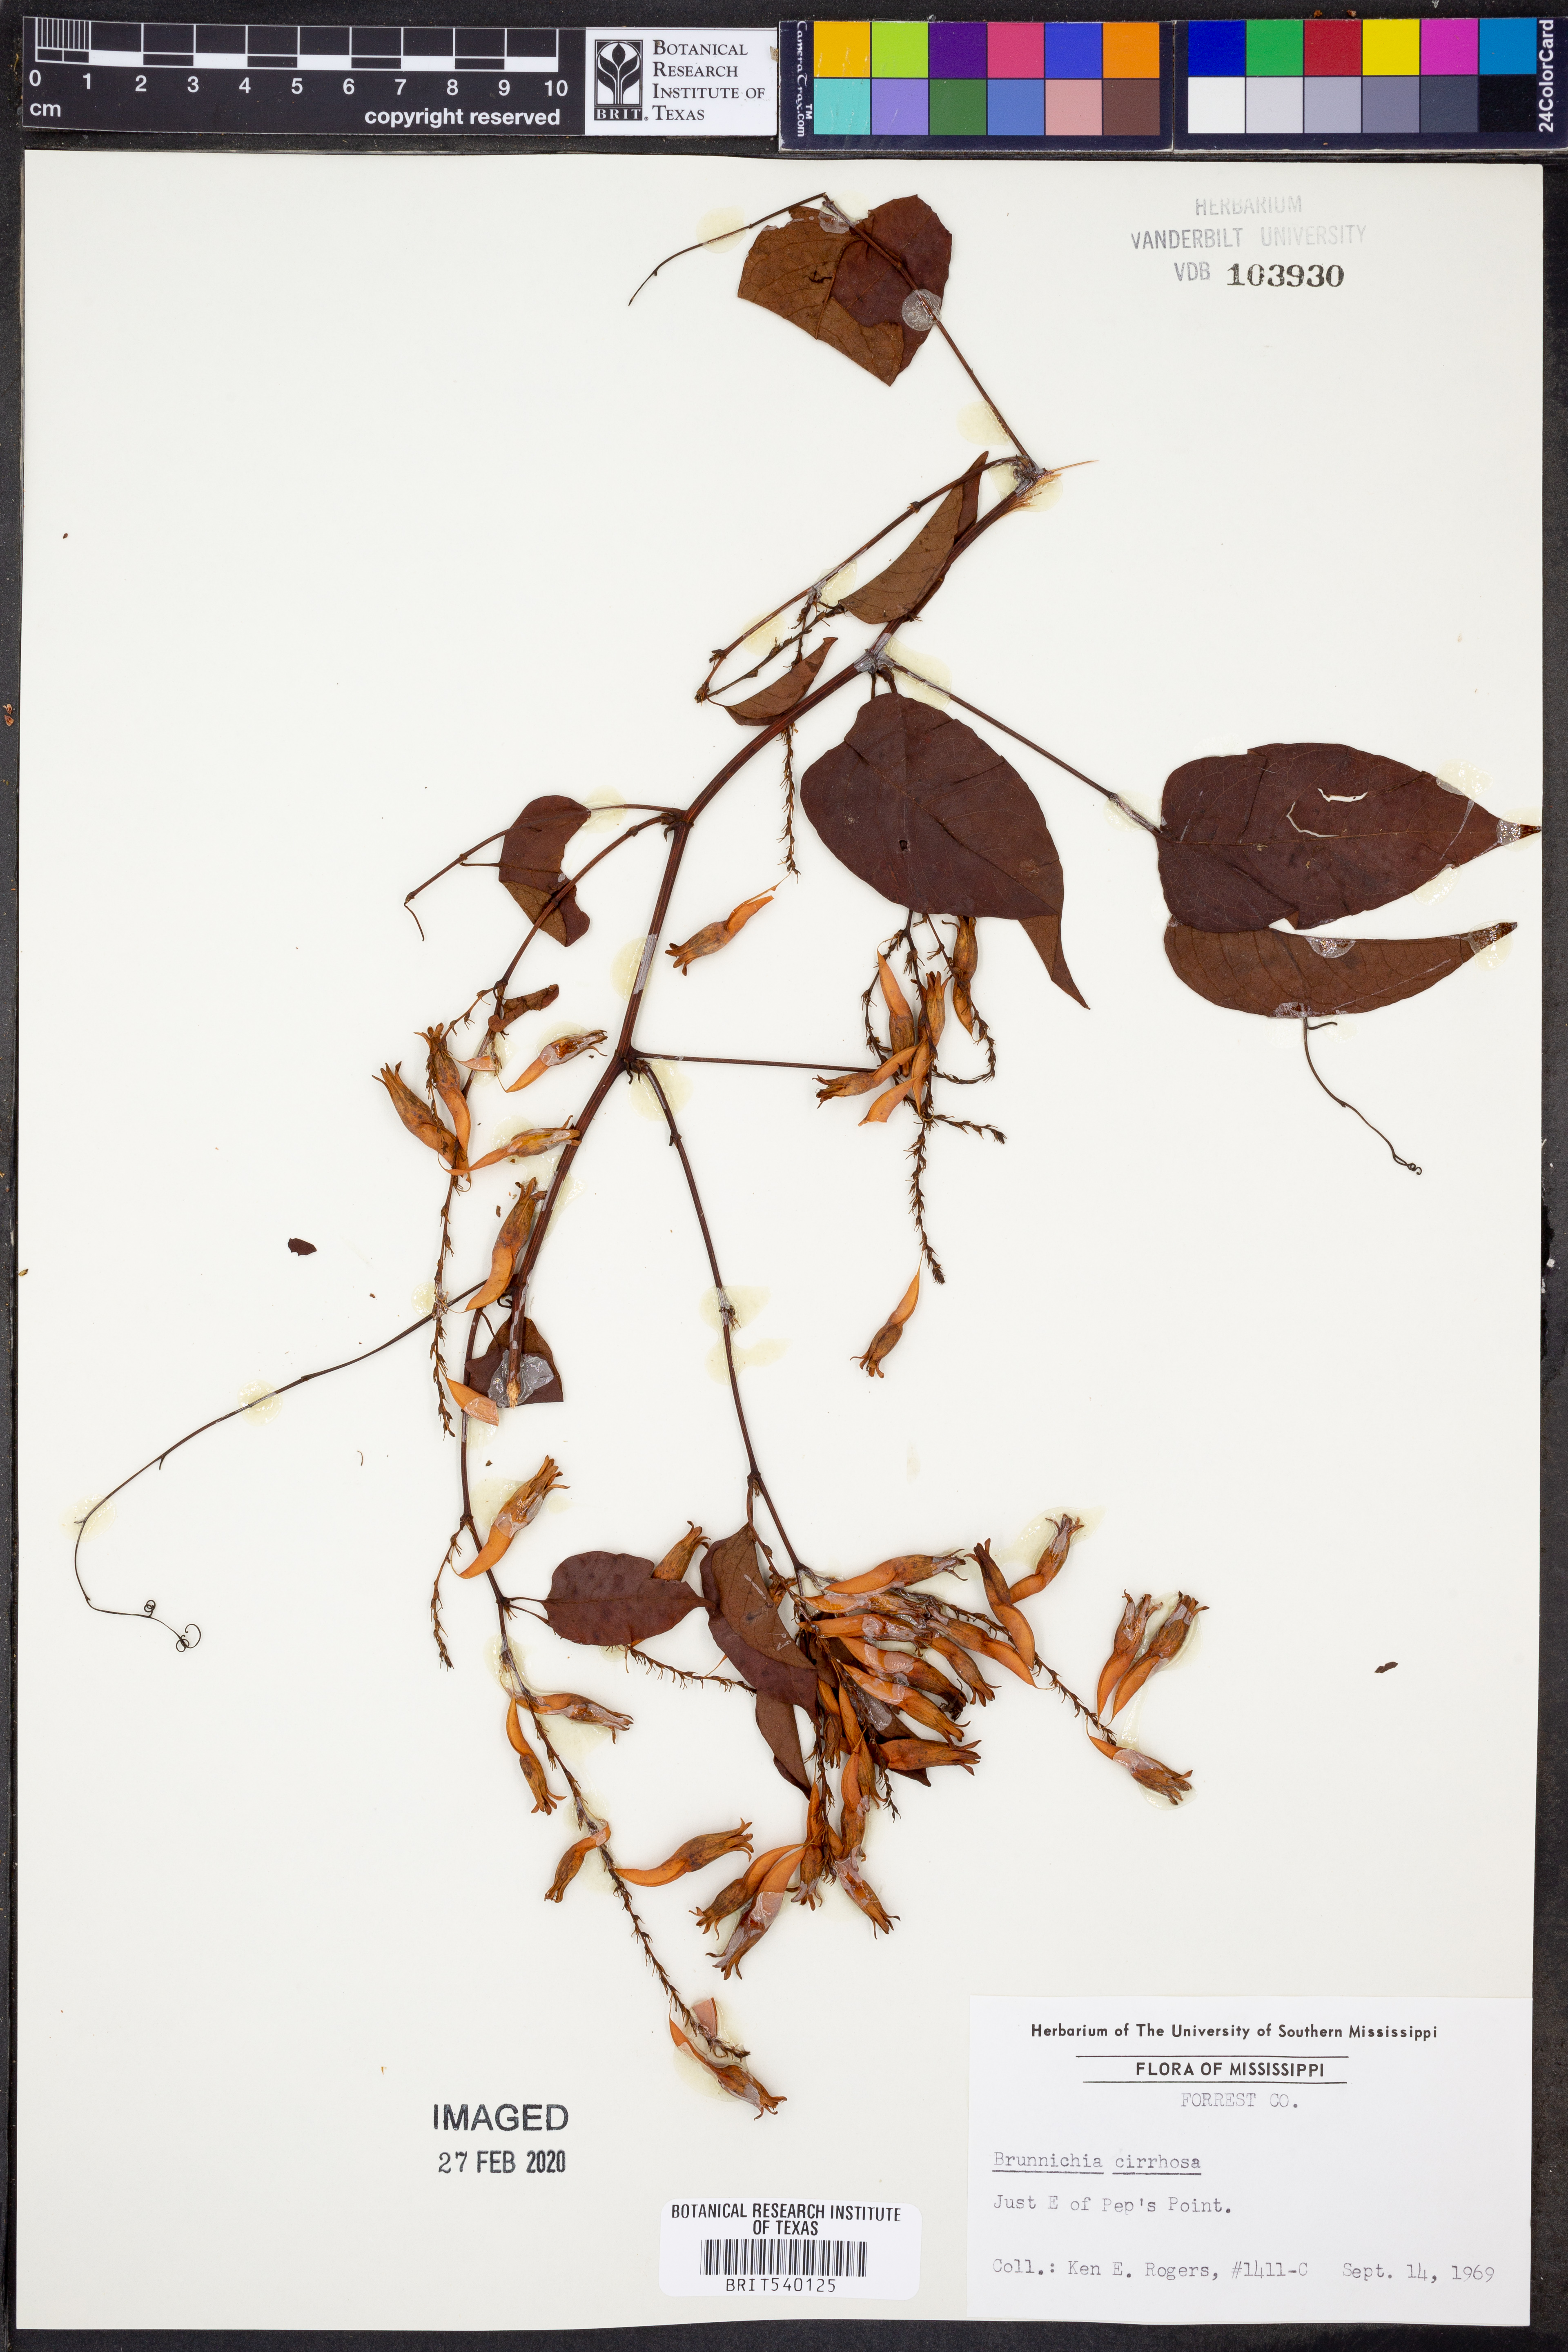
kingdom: Plantae
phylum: Tracheophyta
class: Magnoliopsida
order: Caryophyllales
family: Polygonaceae
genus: Brunnichia
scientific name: Brunnichia ovata
